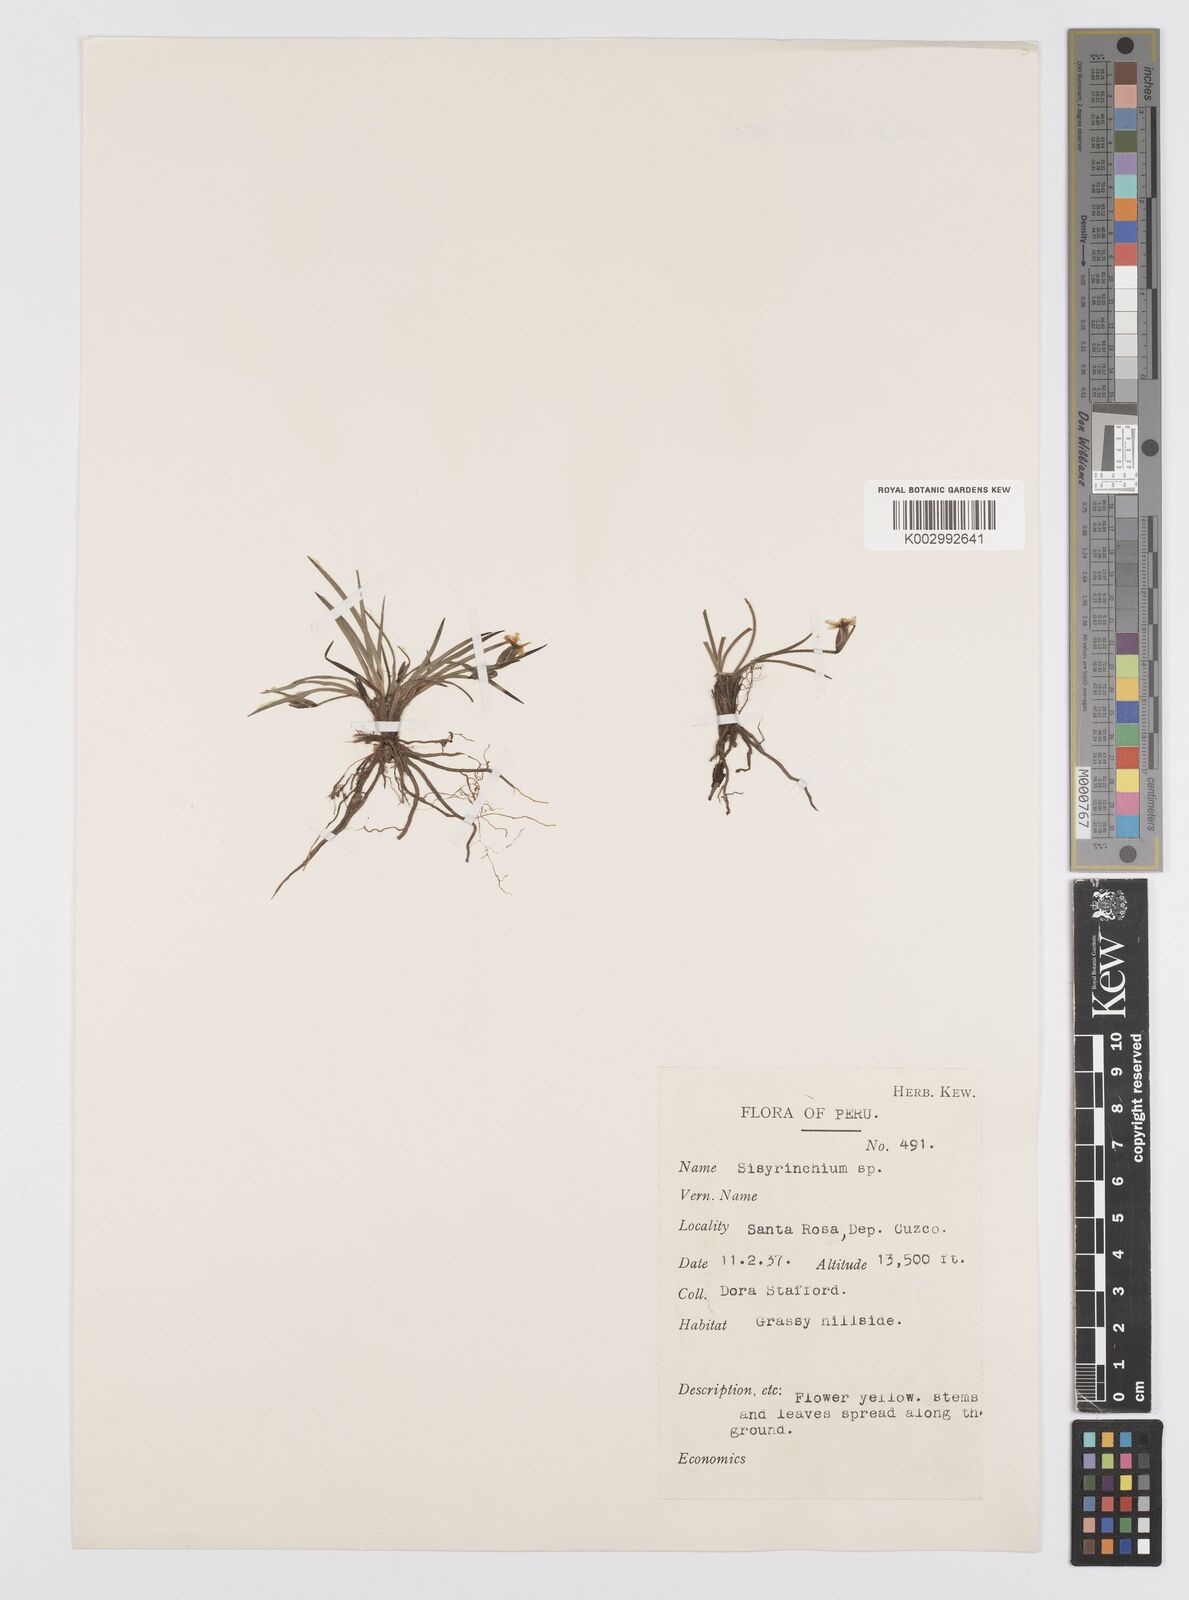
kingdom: Plantae
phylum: Tracheophyta
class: Liliopsida
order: Asparagales
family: Iridaceae
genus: Sisyrinchium
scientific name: Sisyrinchium
